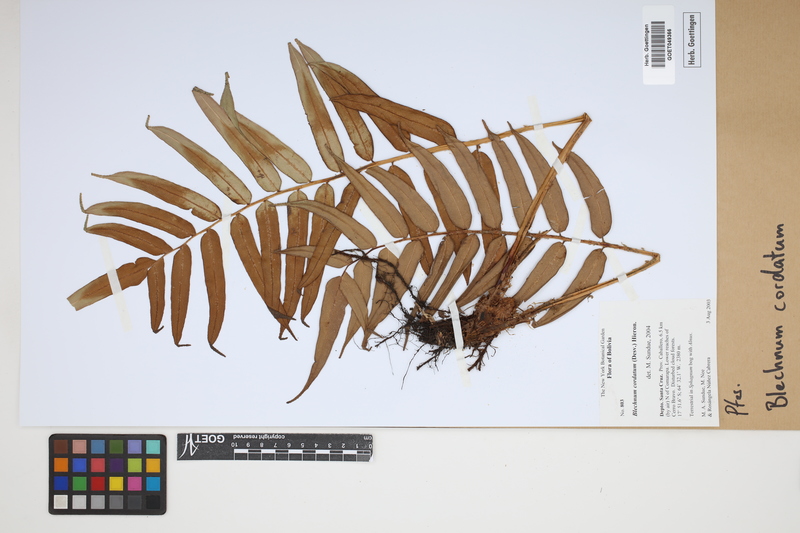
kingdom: Plantae
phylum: Tracheophyta
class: Polypodiopsida
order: Polypodiales
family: Blechnaceae
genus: Parablechnum
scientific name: Parablechnum cordatum
